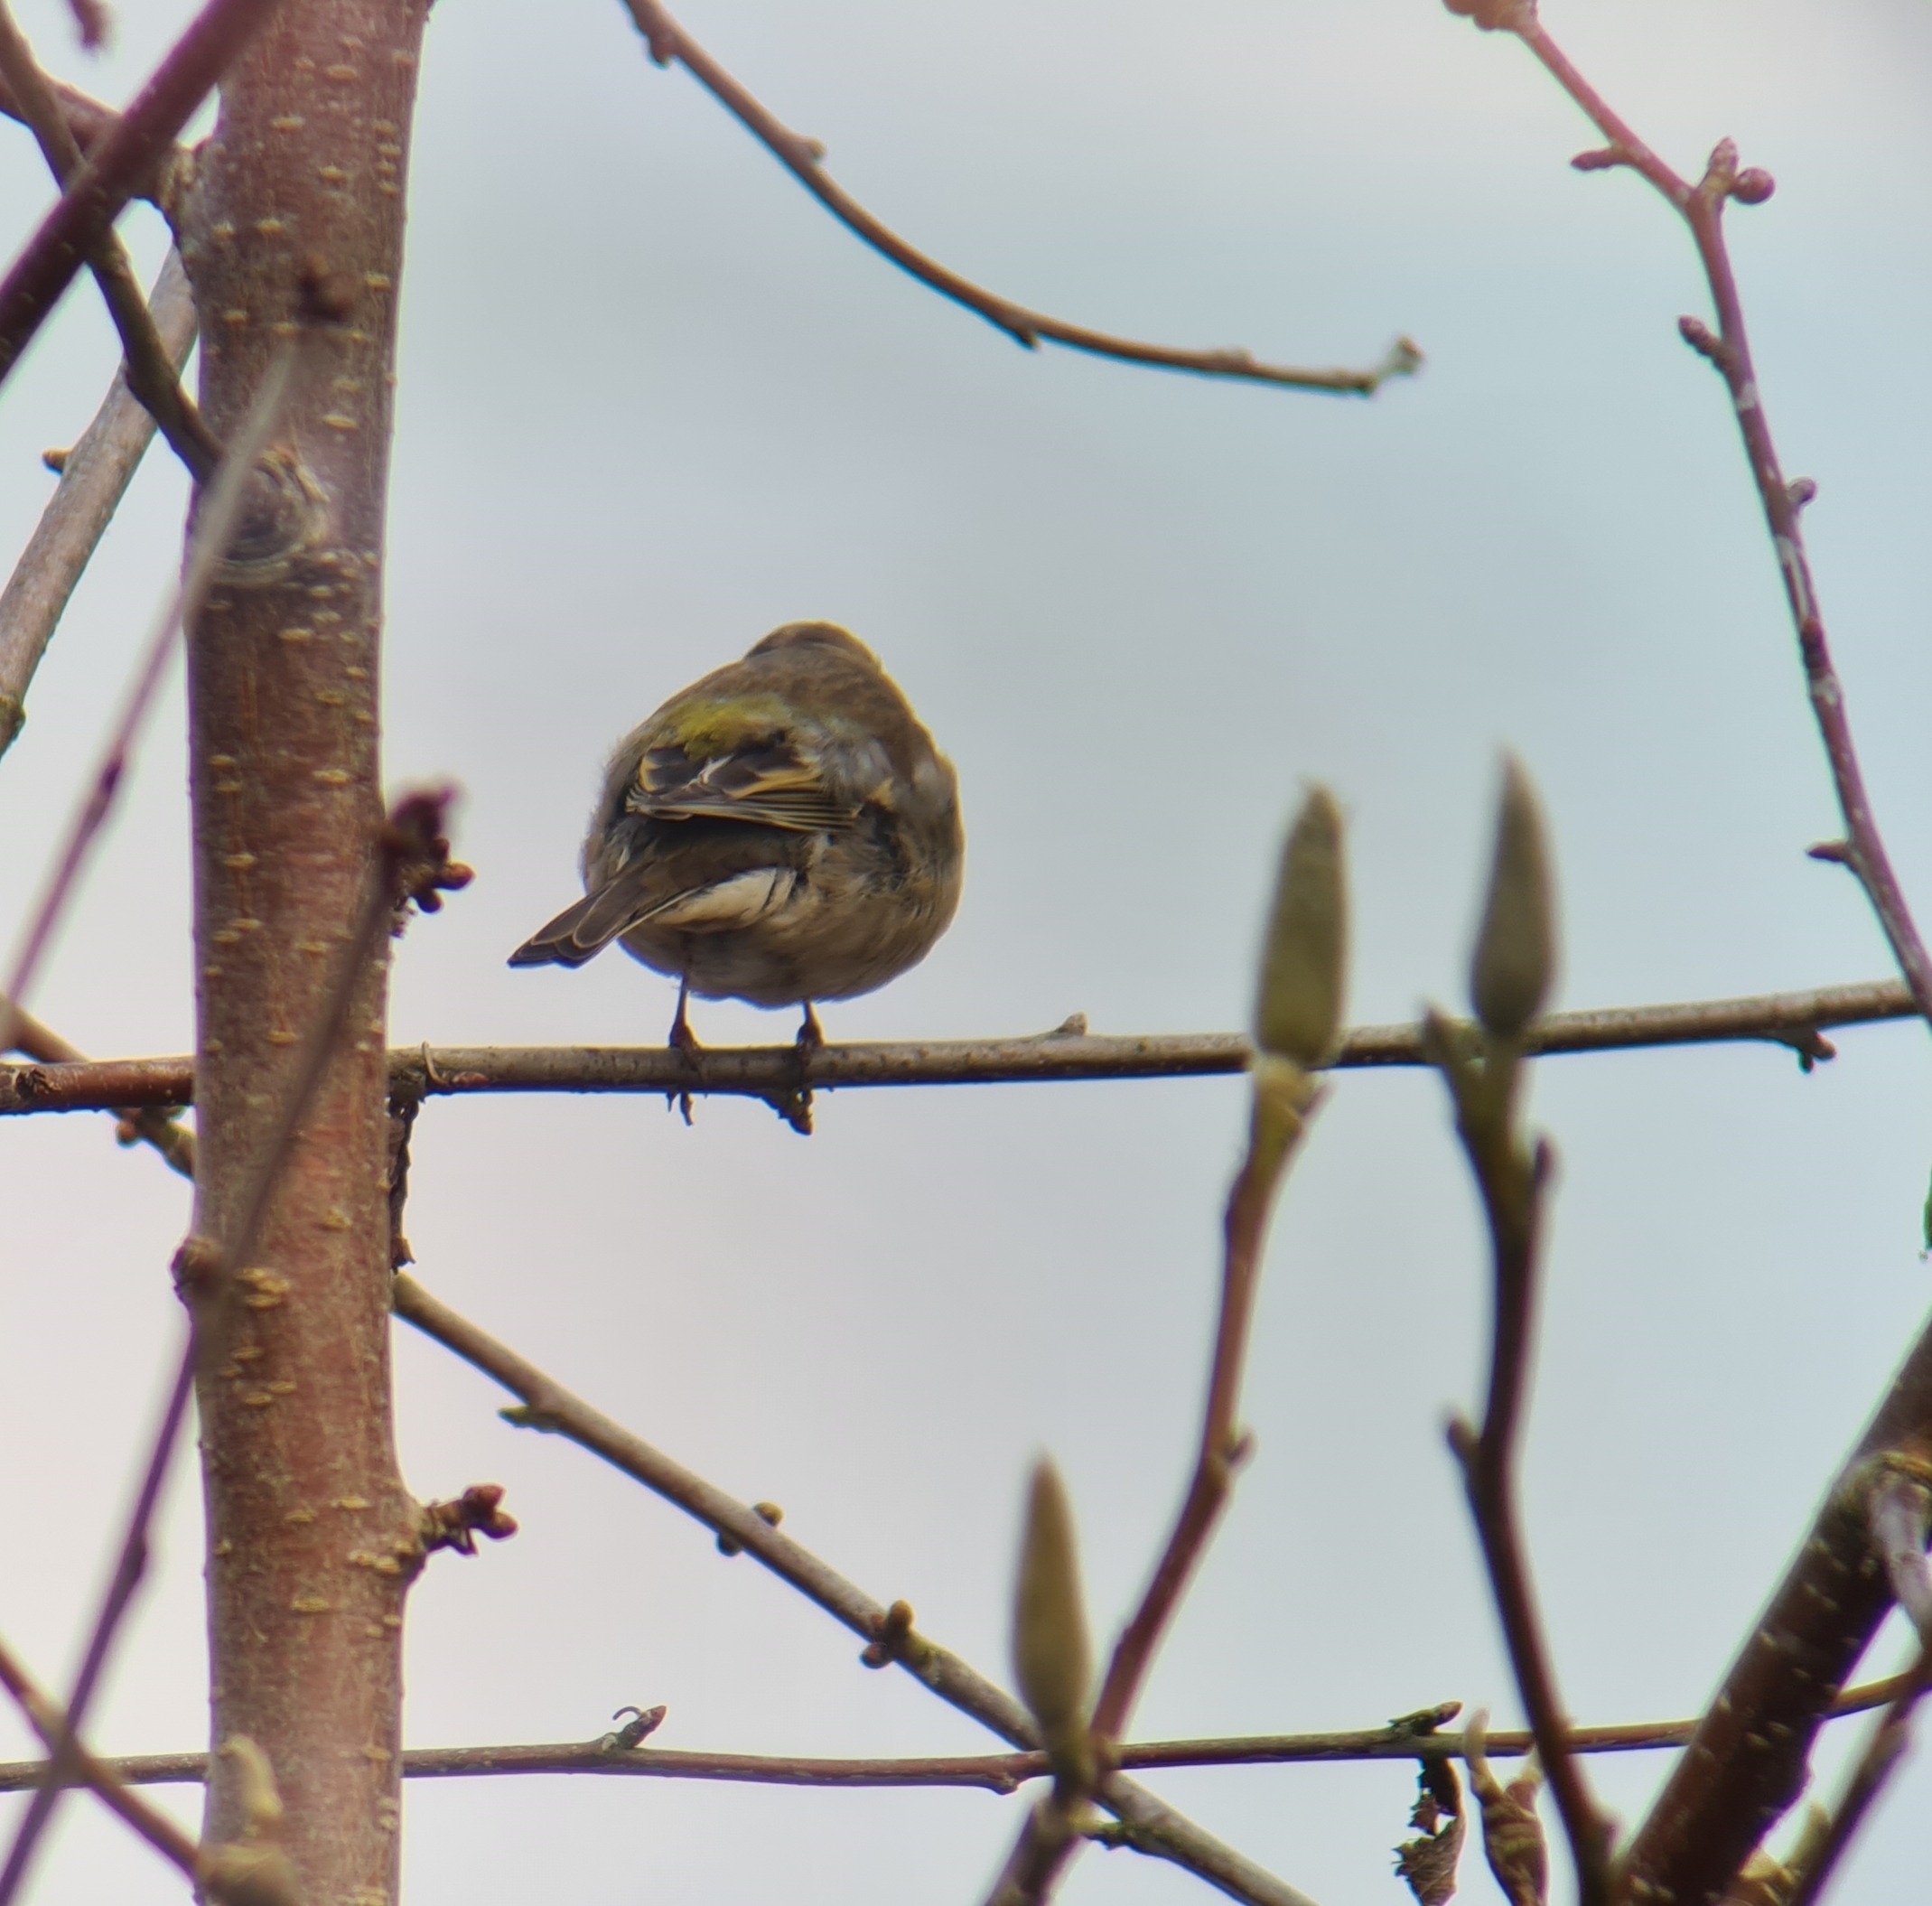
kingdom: Animalia
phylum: Chordata
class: Aves
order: Passeriformes
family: Fringillidae
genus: Fringilla
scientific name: Fringilla coelebs
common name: Bogfinke
